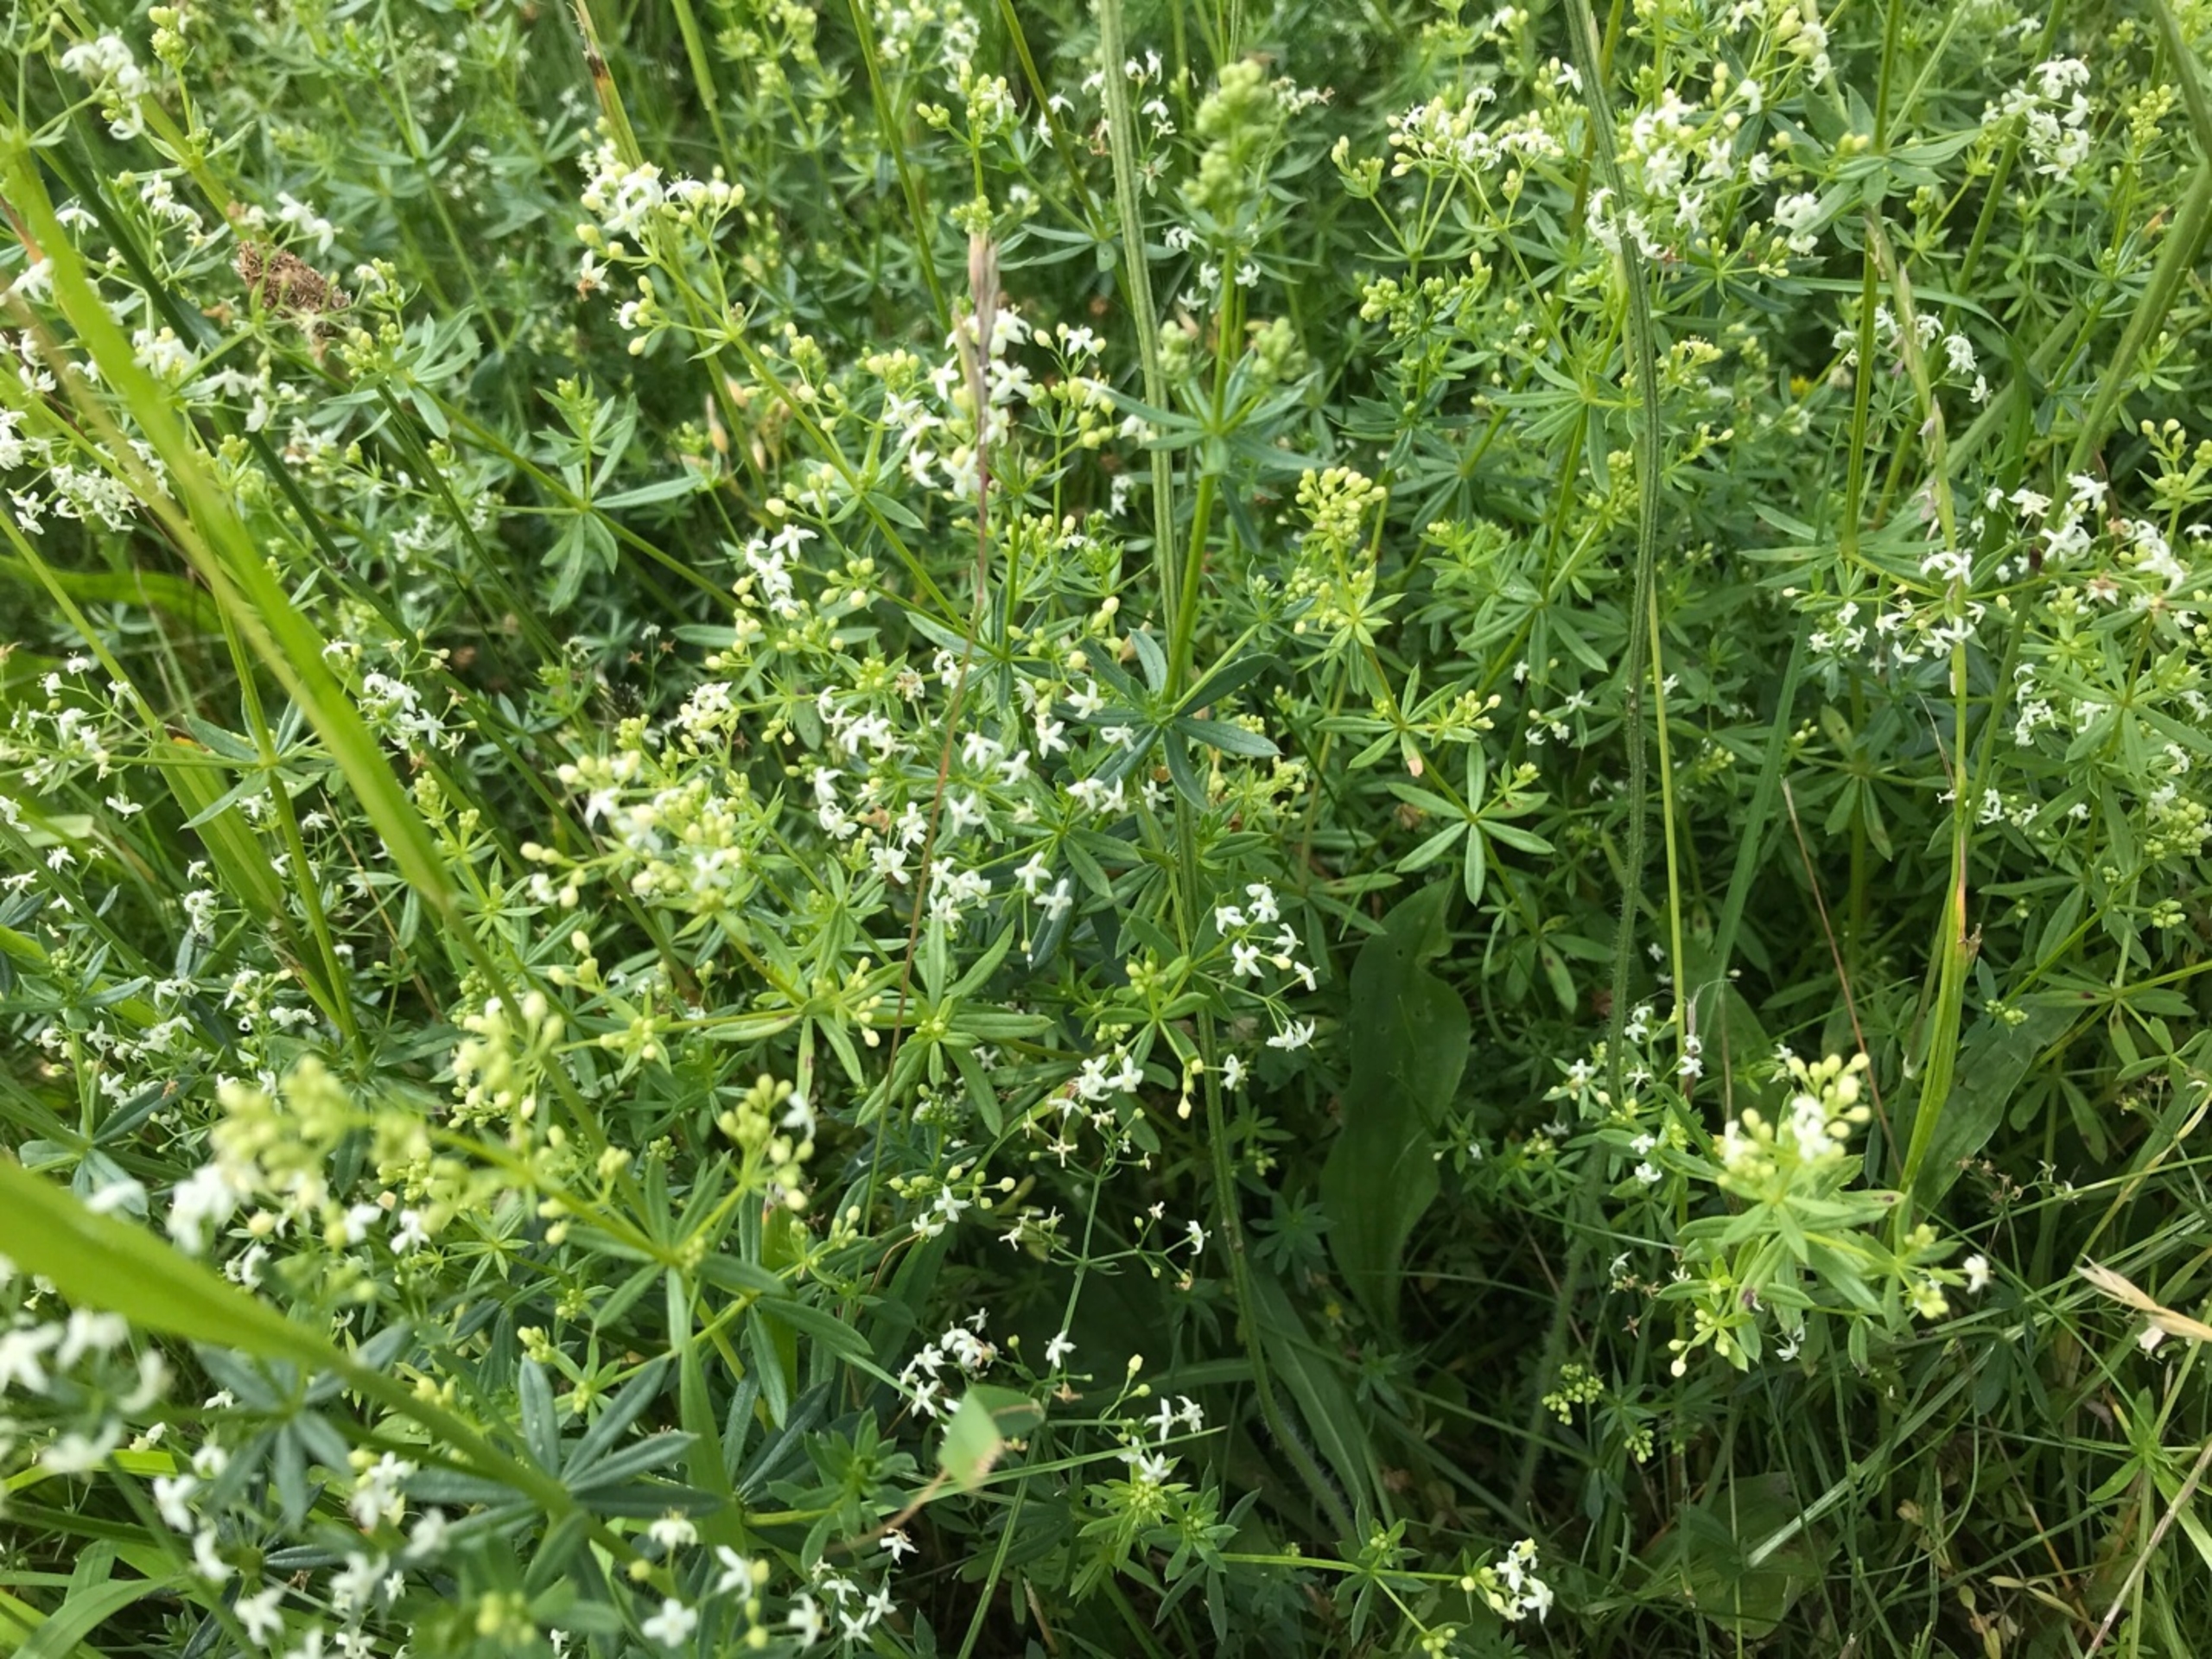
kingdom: Plantae
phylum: Tracheophyta
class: Magnoliopsida
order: Gentianales
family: Rubiaceae
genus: Galium
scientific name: Galium mollugo
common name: Hvid snerre
